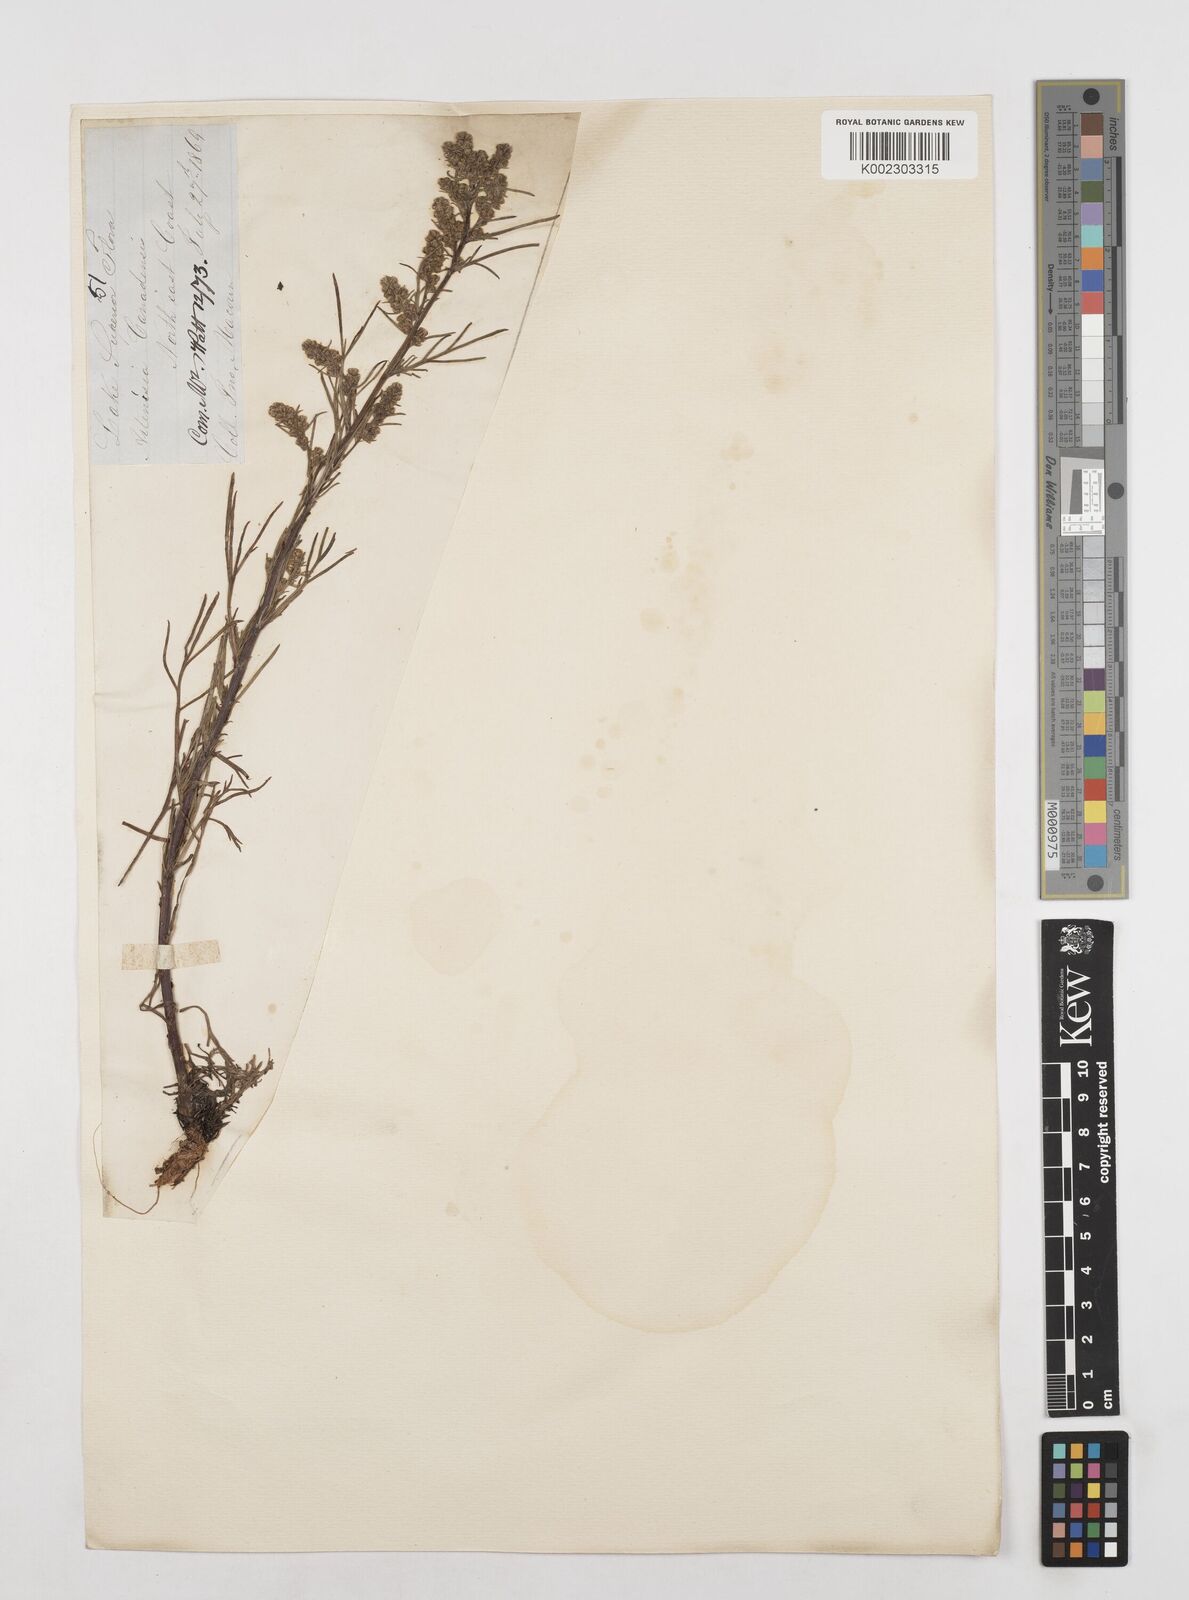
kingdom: Plantae
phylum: Tracheophyta
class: Magnoliopsida
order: Asterales
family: Asteraceae
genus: Artemisia
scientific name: Artemisia desertorum
